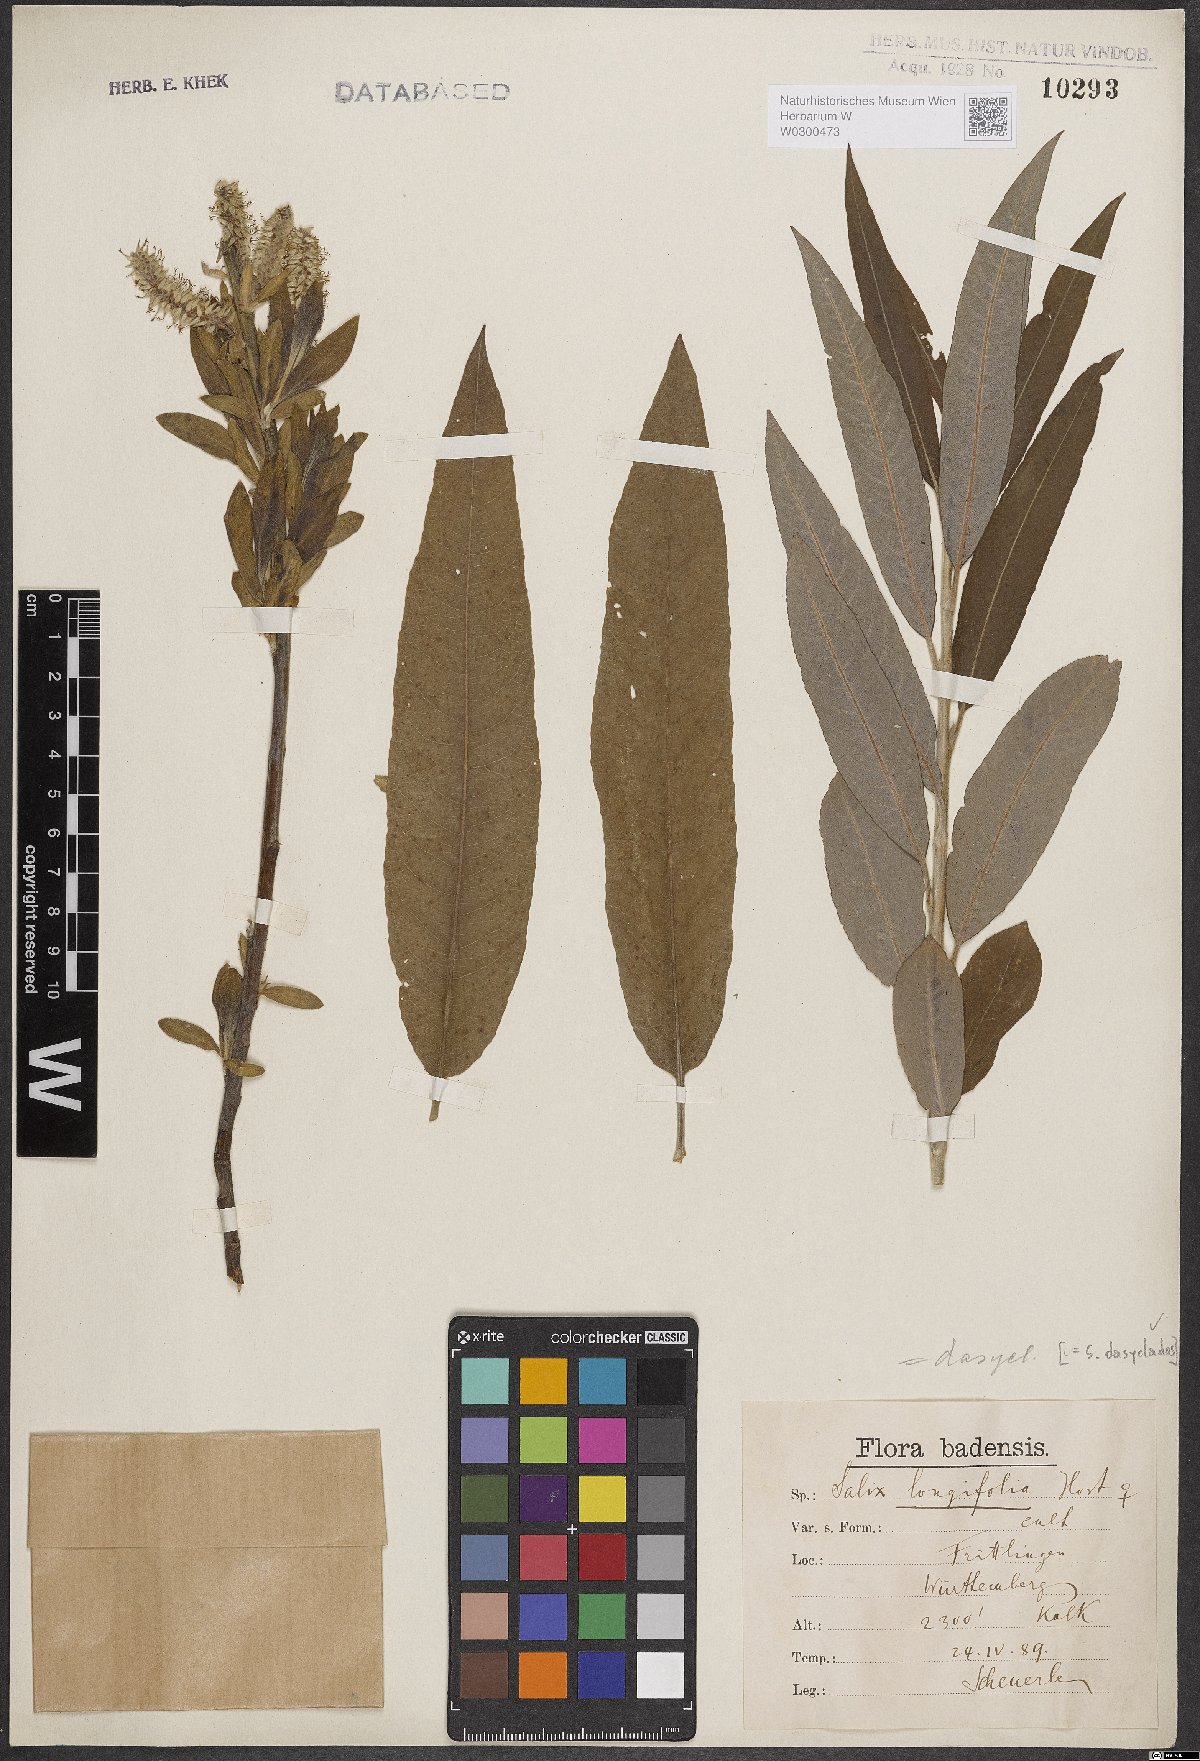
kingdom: Plantae
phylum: Tracheophyta
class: Magnoliopsida
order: Malpighiales
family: Salicaceae
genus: Salix
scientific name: Salix gmelinii
